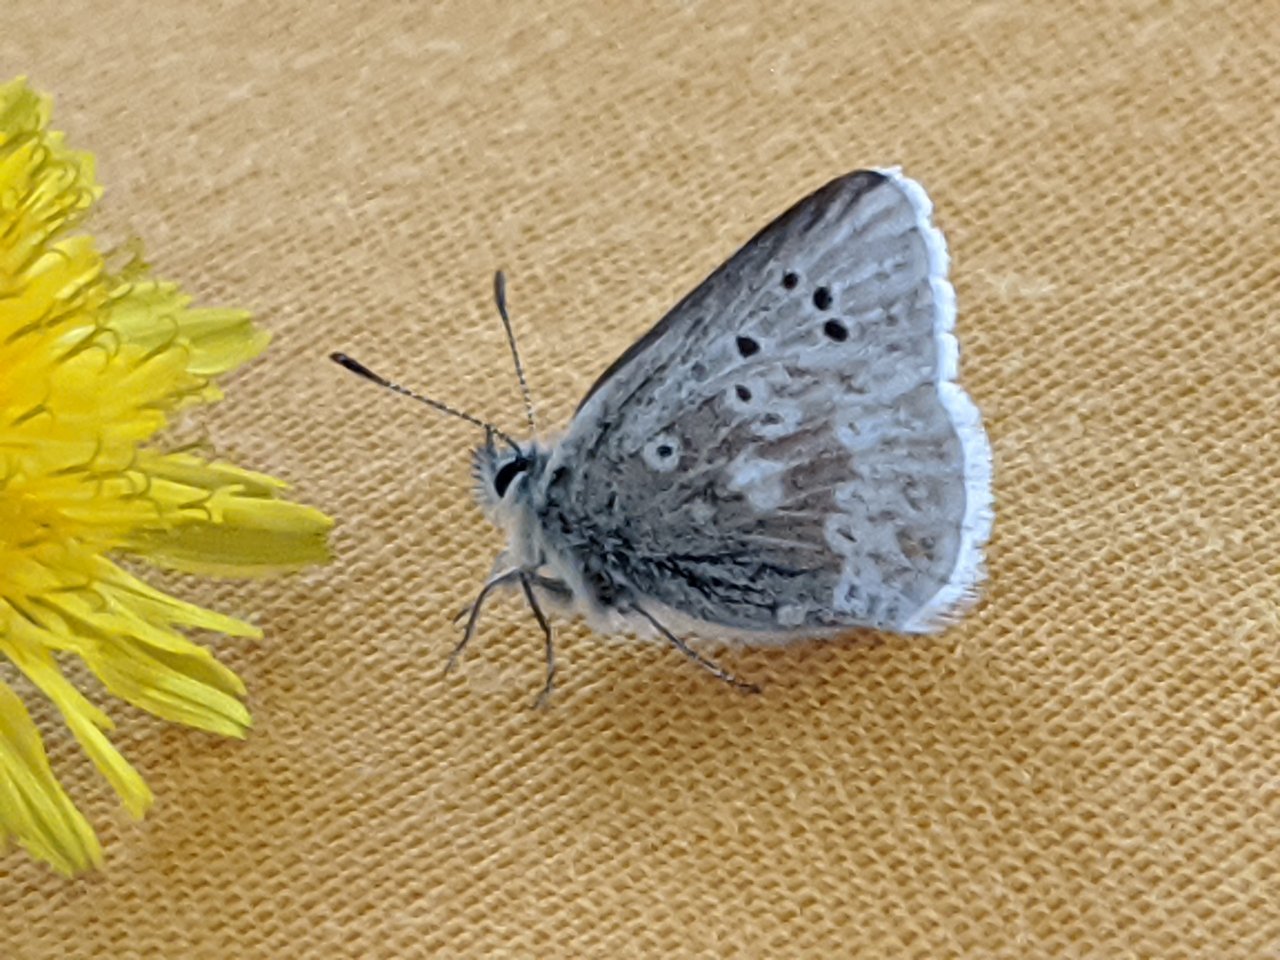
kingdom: Animalia
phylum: Arthropoda
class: Insecta
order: Lepidoptera
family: Lycaenidae
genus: Agriades
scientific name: Agriades glandon
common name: Arctic Blue
